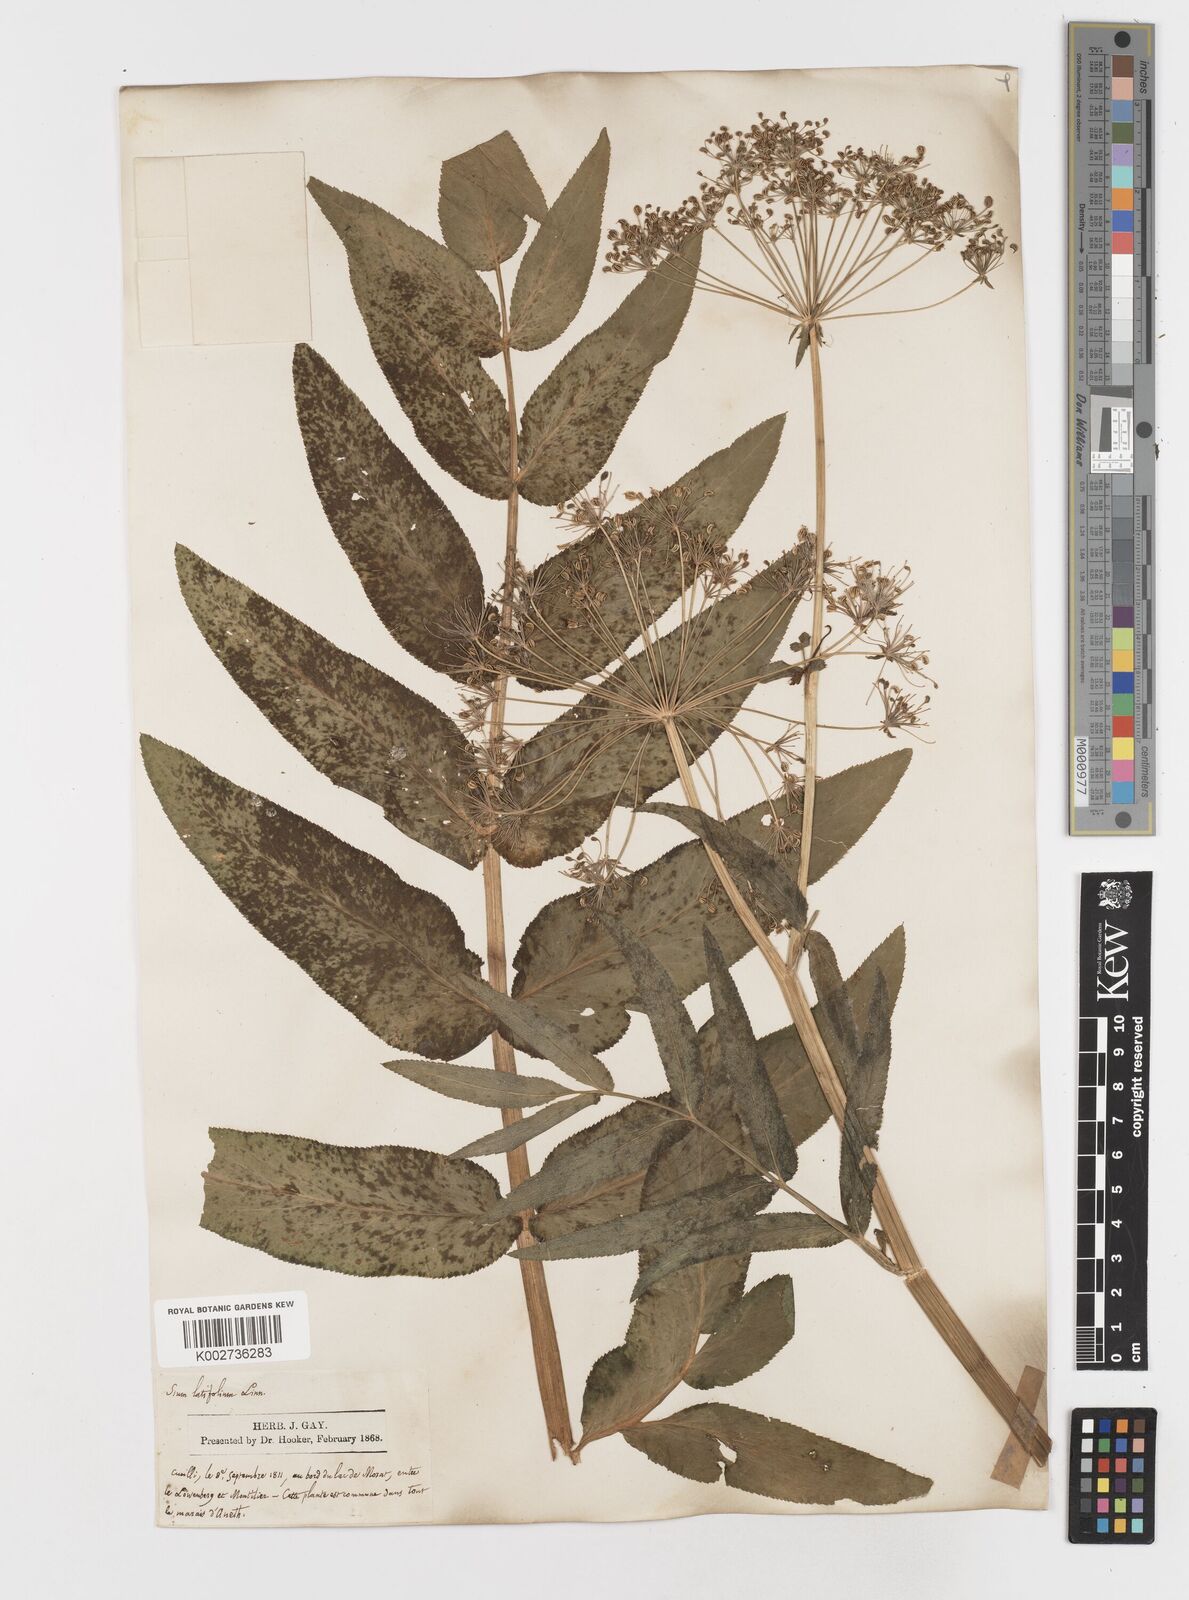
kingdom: Plantae
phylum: Tracheophyta
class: Magnoliopsida
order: Apiales
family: Apiaceae
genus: Sium
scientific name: Sium latifolium
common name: Greater water-parsnip
